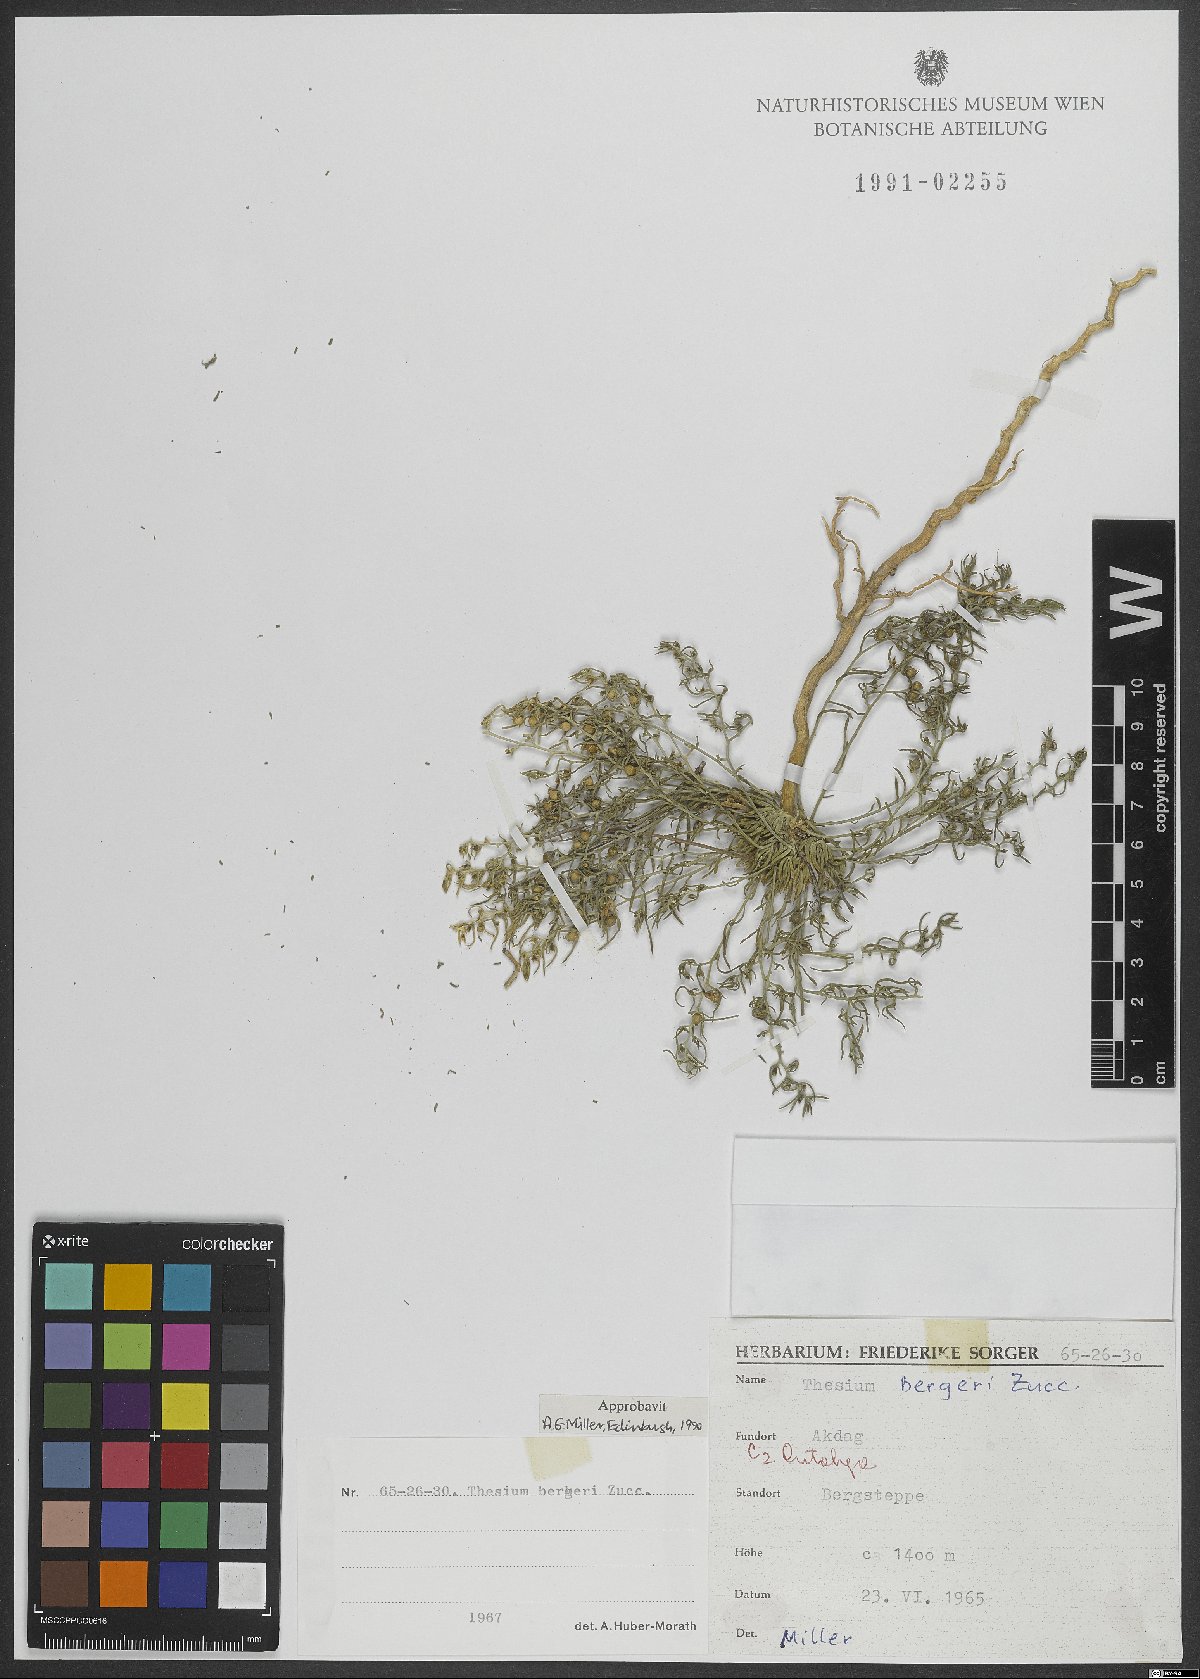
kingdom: Plantae
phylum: Tracheophyta
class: Magnoliopsida
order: Santalales
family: Thesiaceae
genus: Thesium
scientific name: Thesium bergeri
